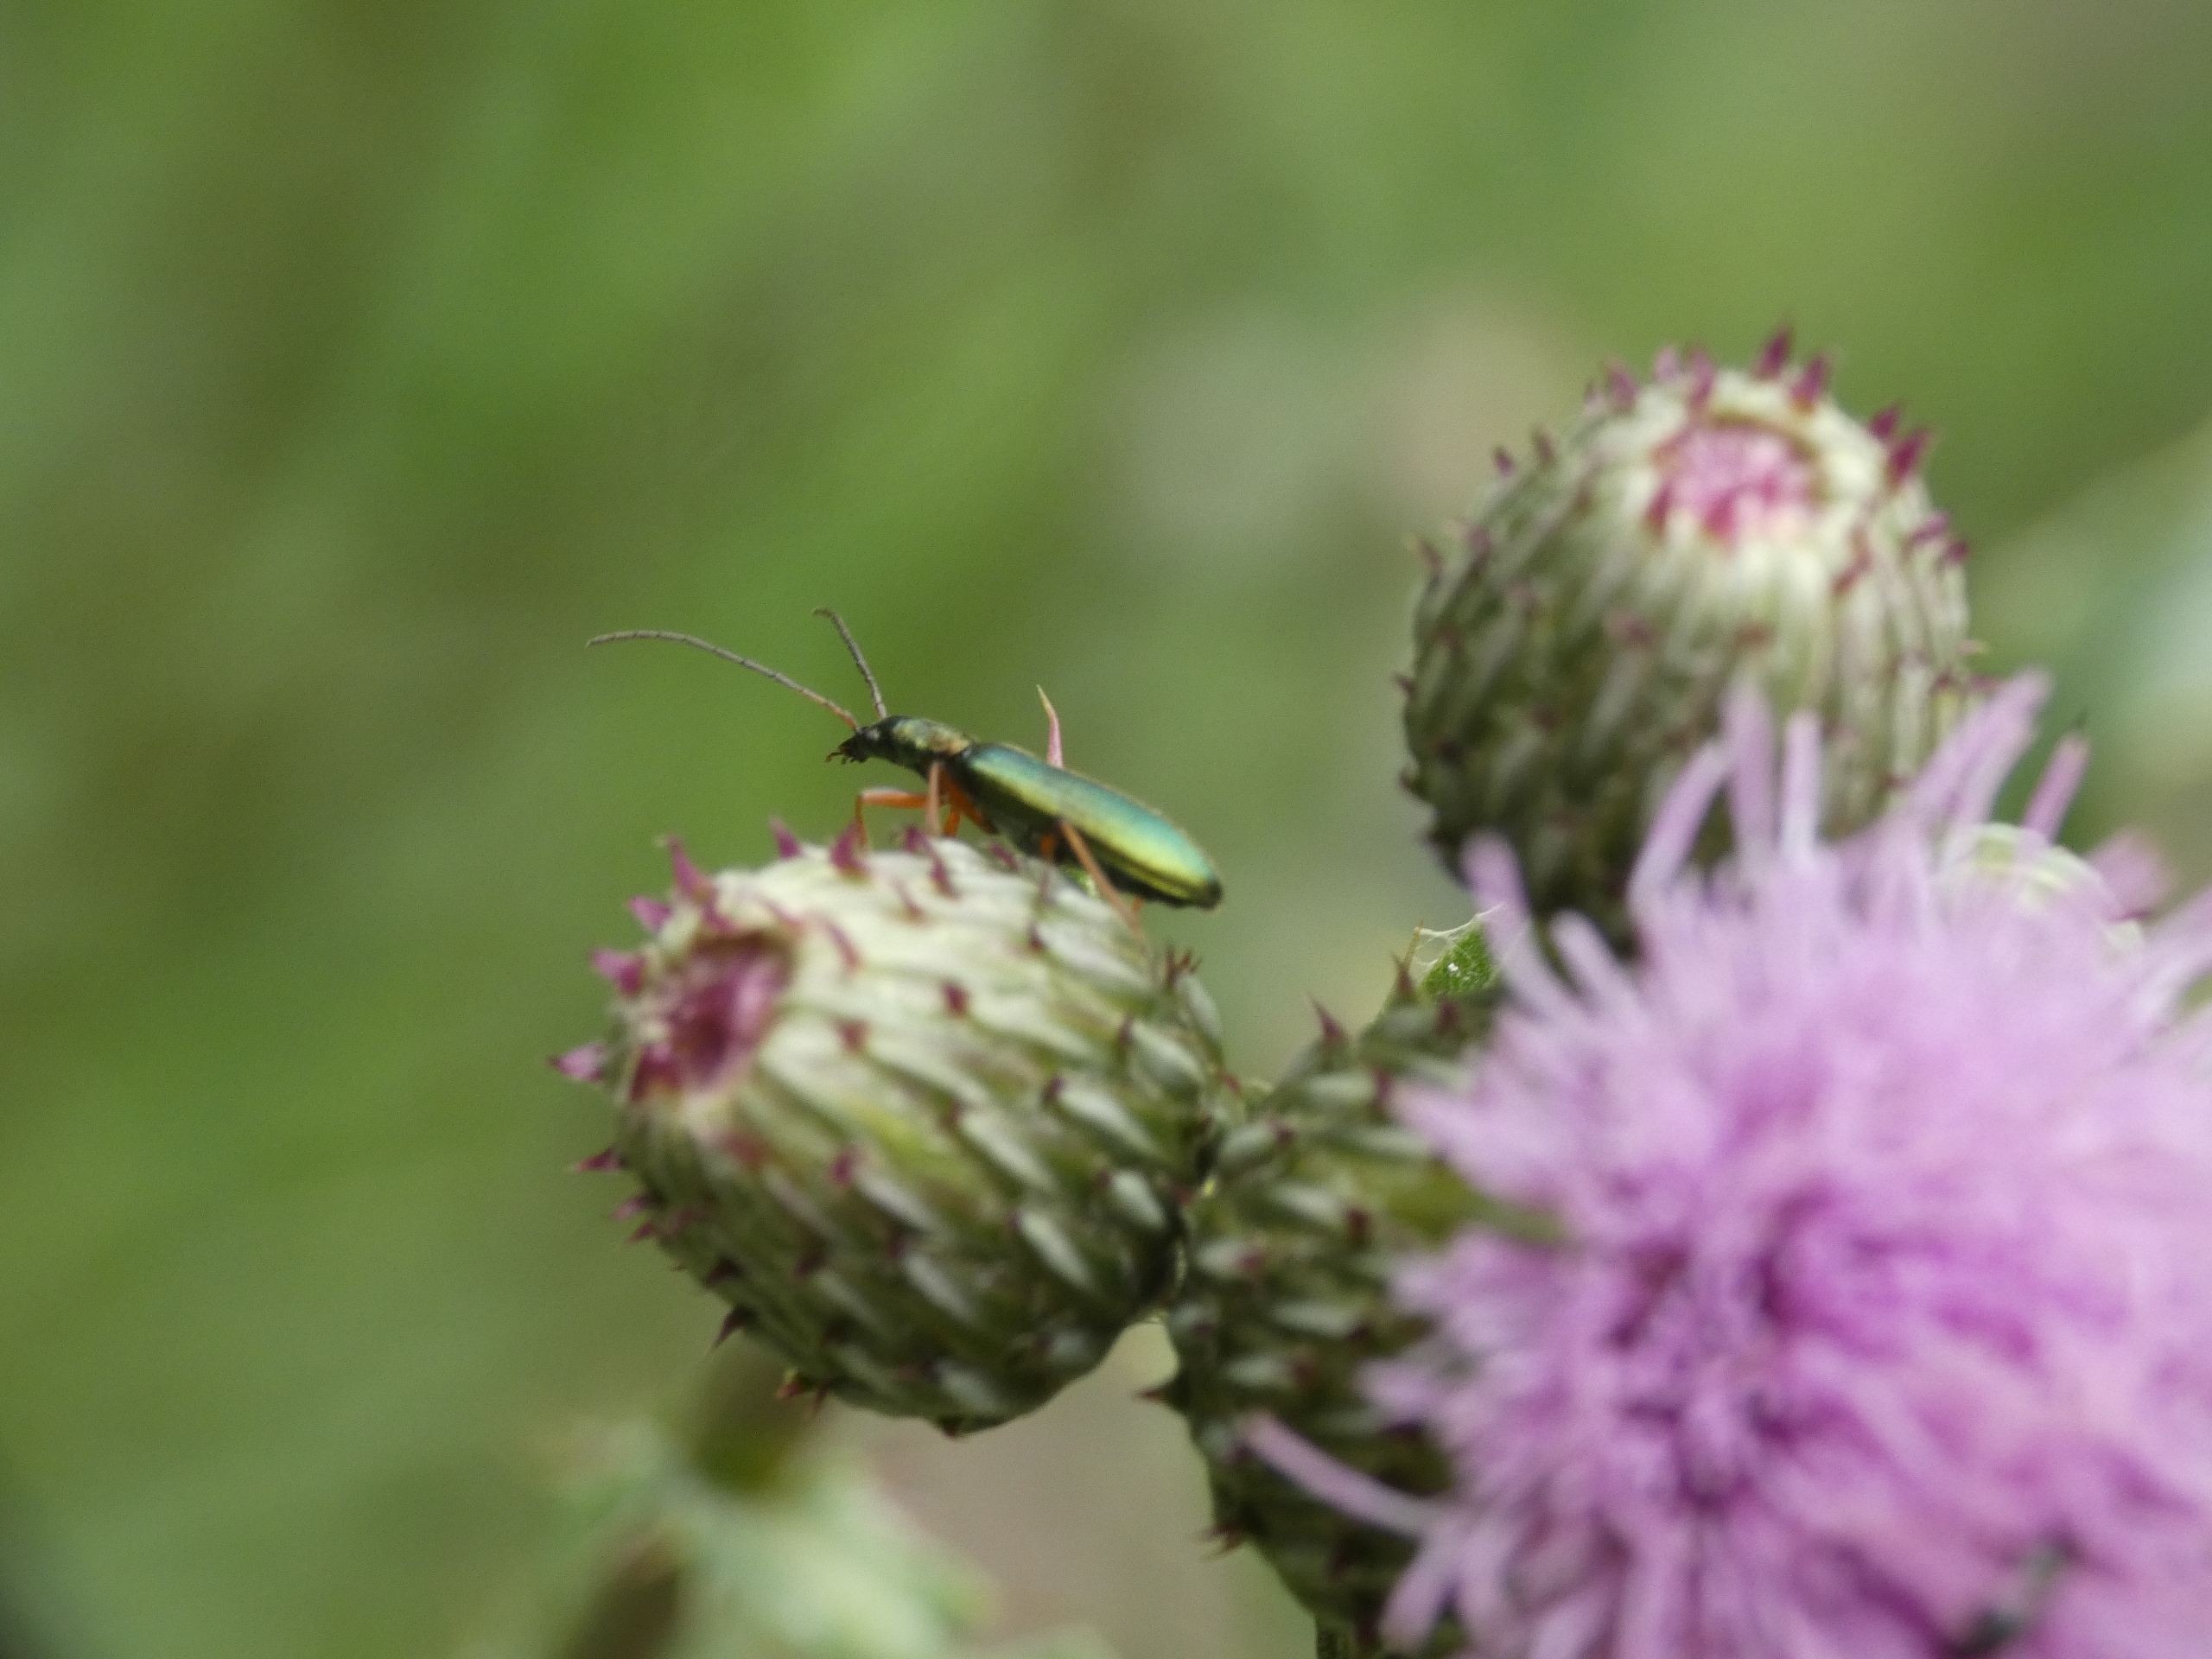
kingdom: Animalia
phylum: Arthropoda
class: Insecta
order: Coleoptera
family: Oedemeridae
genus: Chrysanthia
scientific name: Chrysanthia geniculata
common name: Grøn solbille
